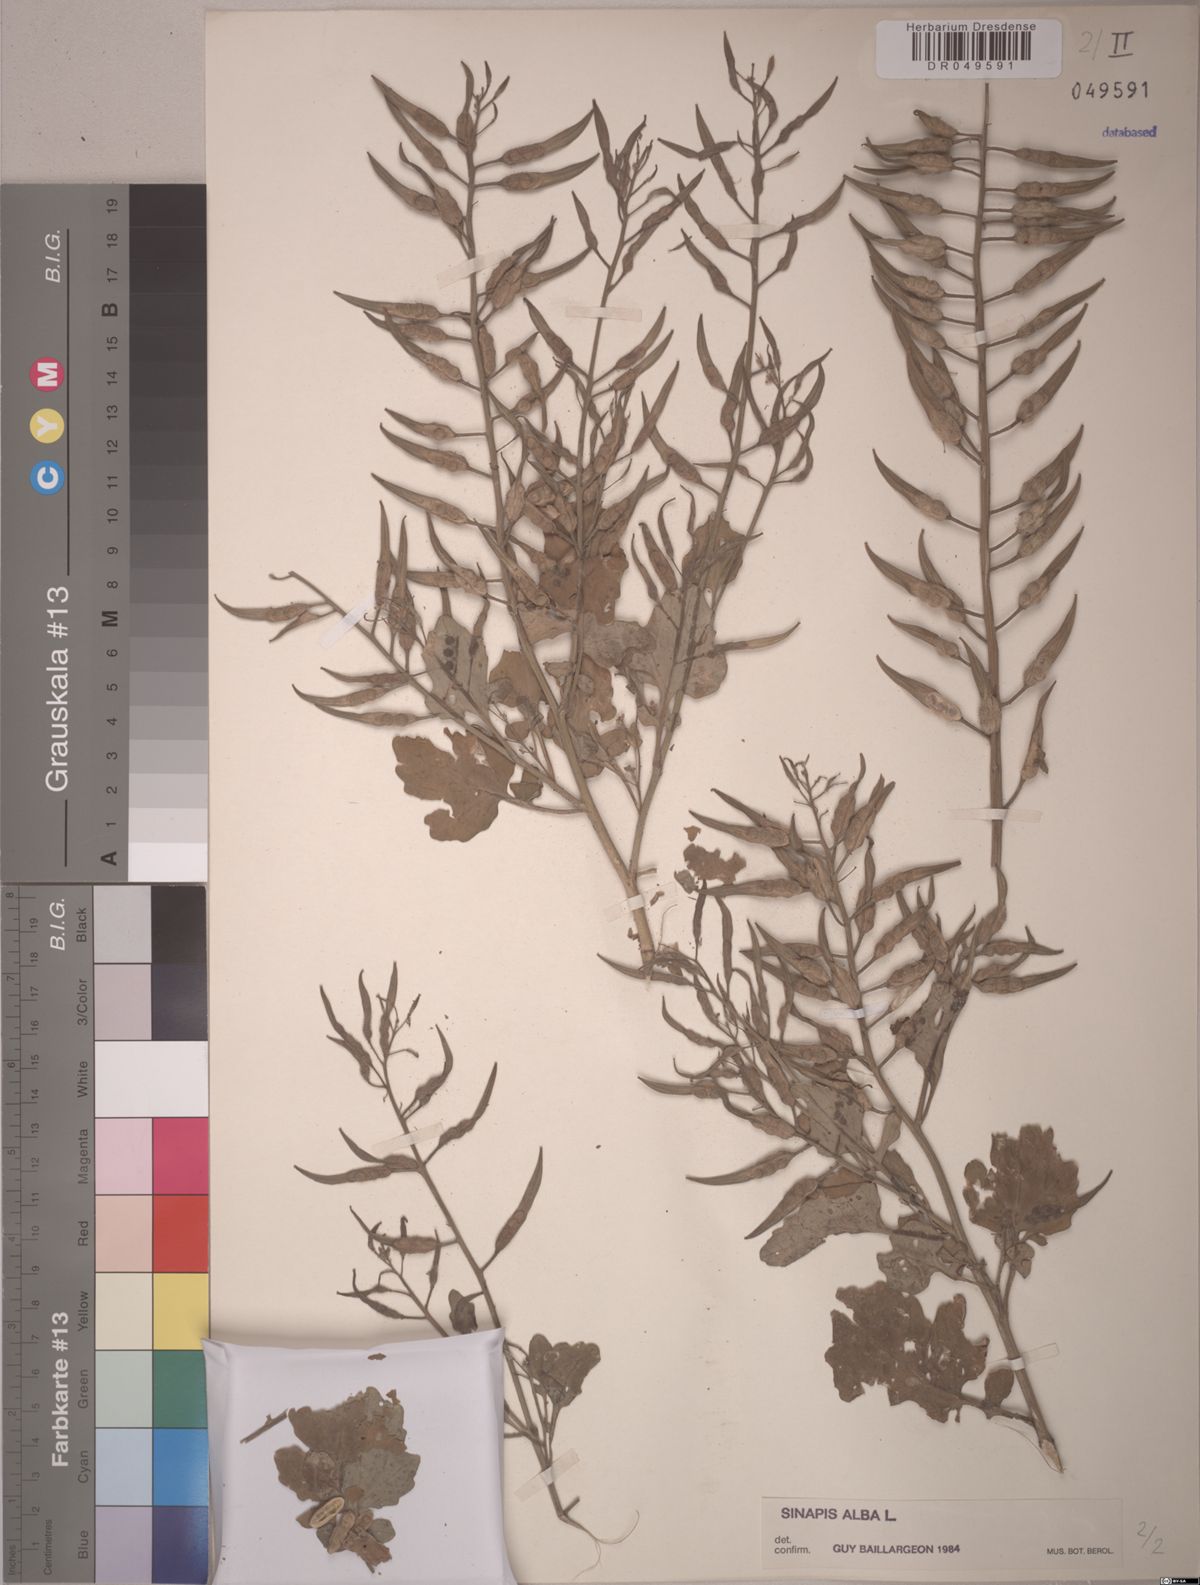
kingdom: Plantae
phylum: Tracheophyta
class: Magnoliopsida
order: Brassicales
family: Brassicaceae
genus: Sinapis
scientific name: Sinapis alba
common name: White mustard
